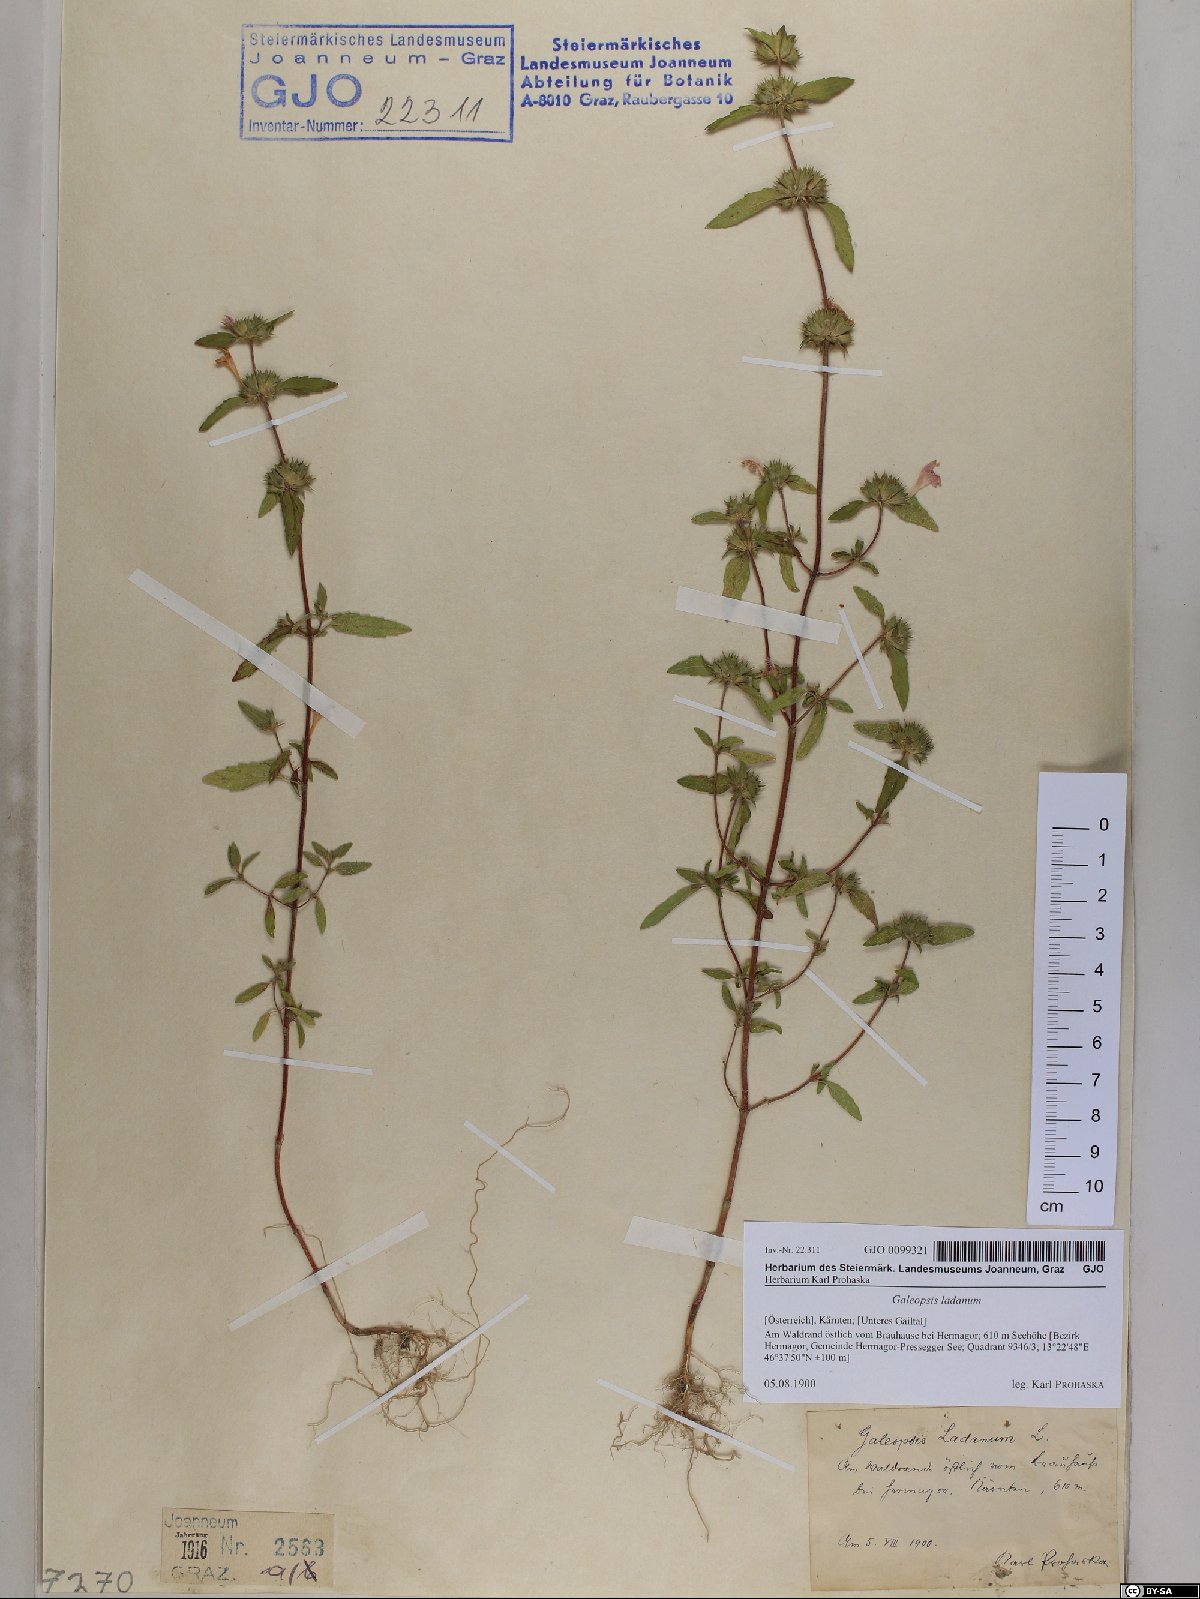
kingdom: Plantae
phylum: Tracheophyta
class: Magnoliopsida
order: Lamiales
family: Lamiaceae
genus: Galeopsis
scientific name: Galeopsis ladanum
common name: Broad-leaved hemp-nettle
